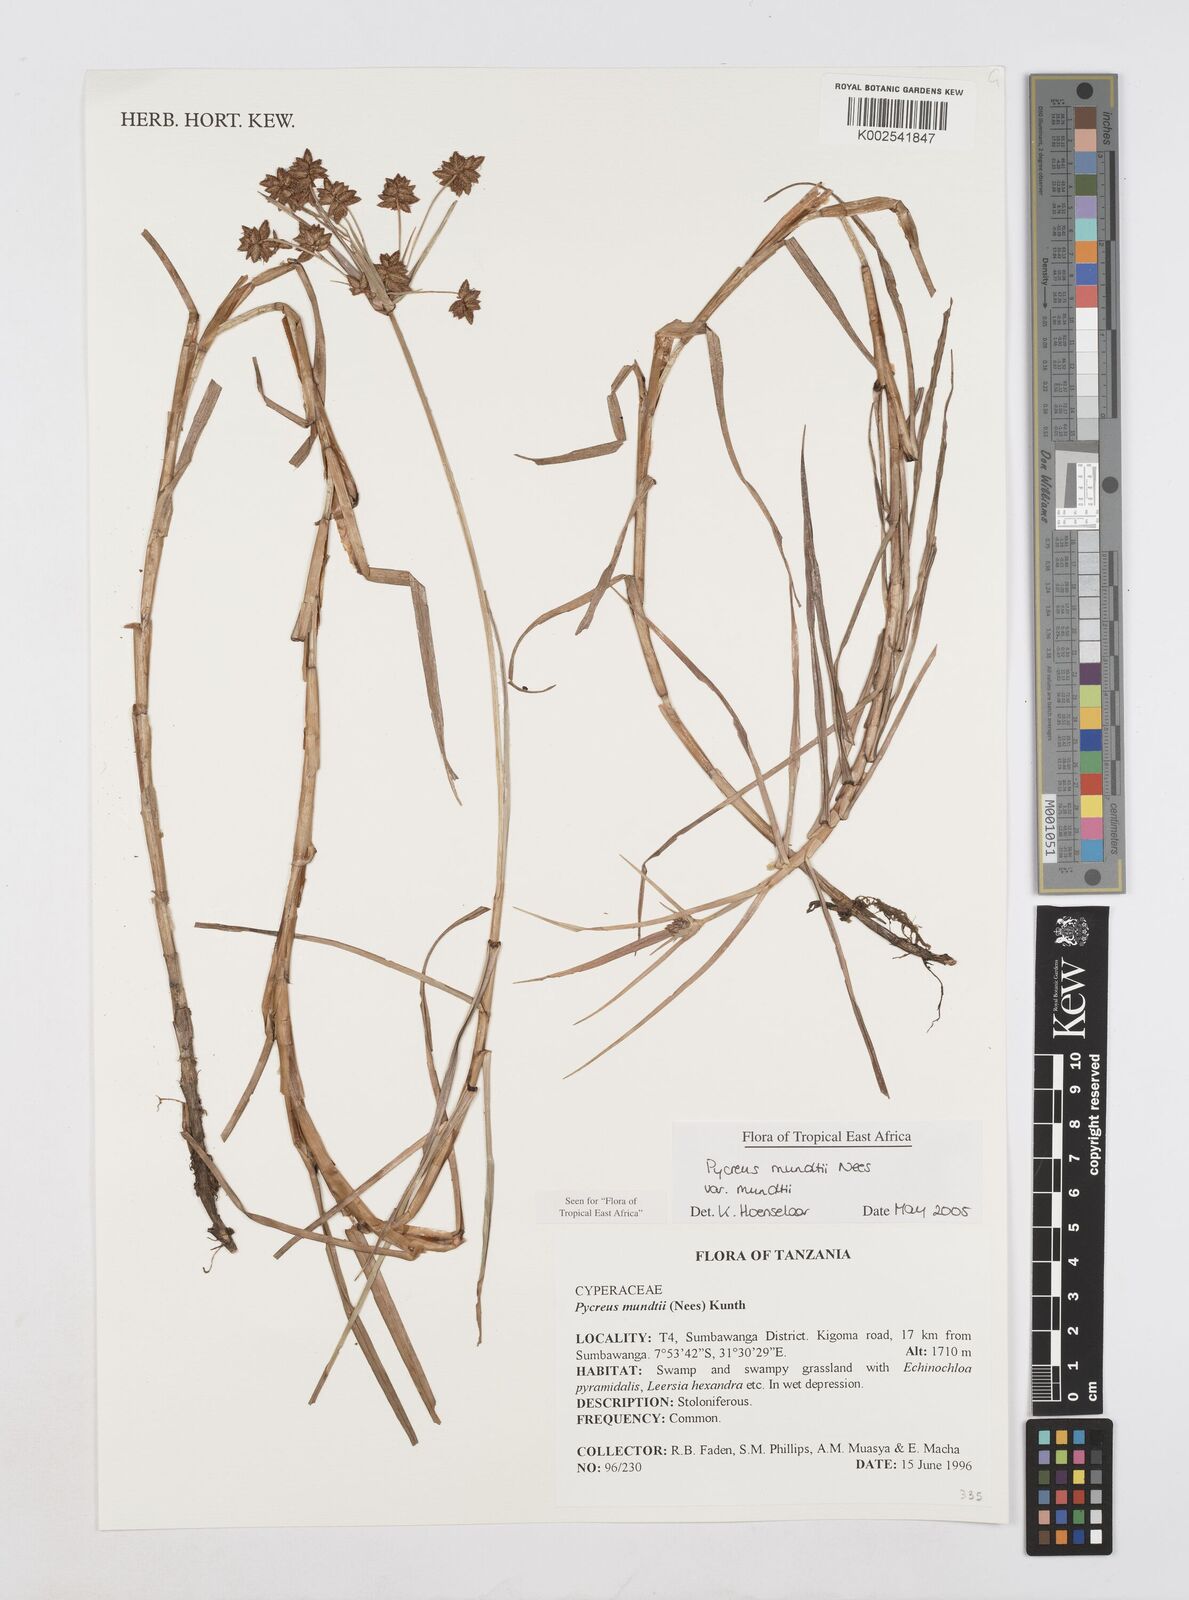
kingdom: Plantae
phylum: Tracheophyta
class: Liliopsida
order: Poales
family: Cyperaceae
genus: Cyperus
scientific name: Cyperus mundii
